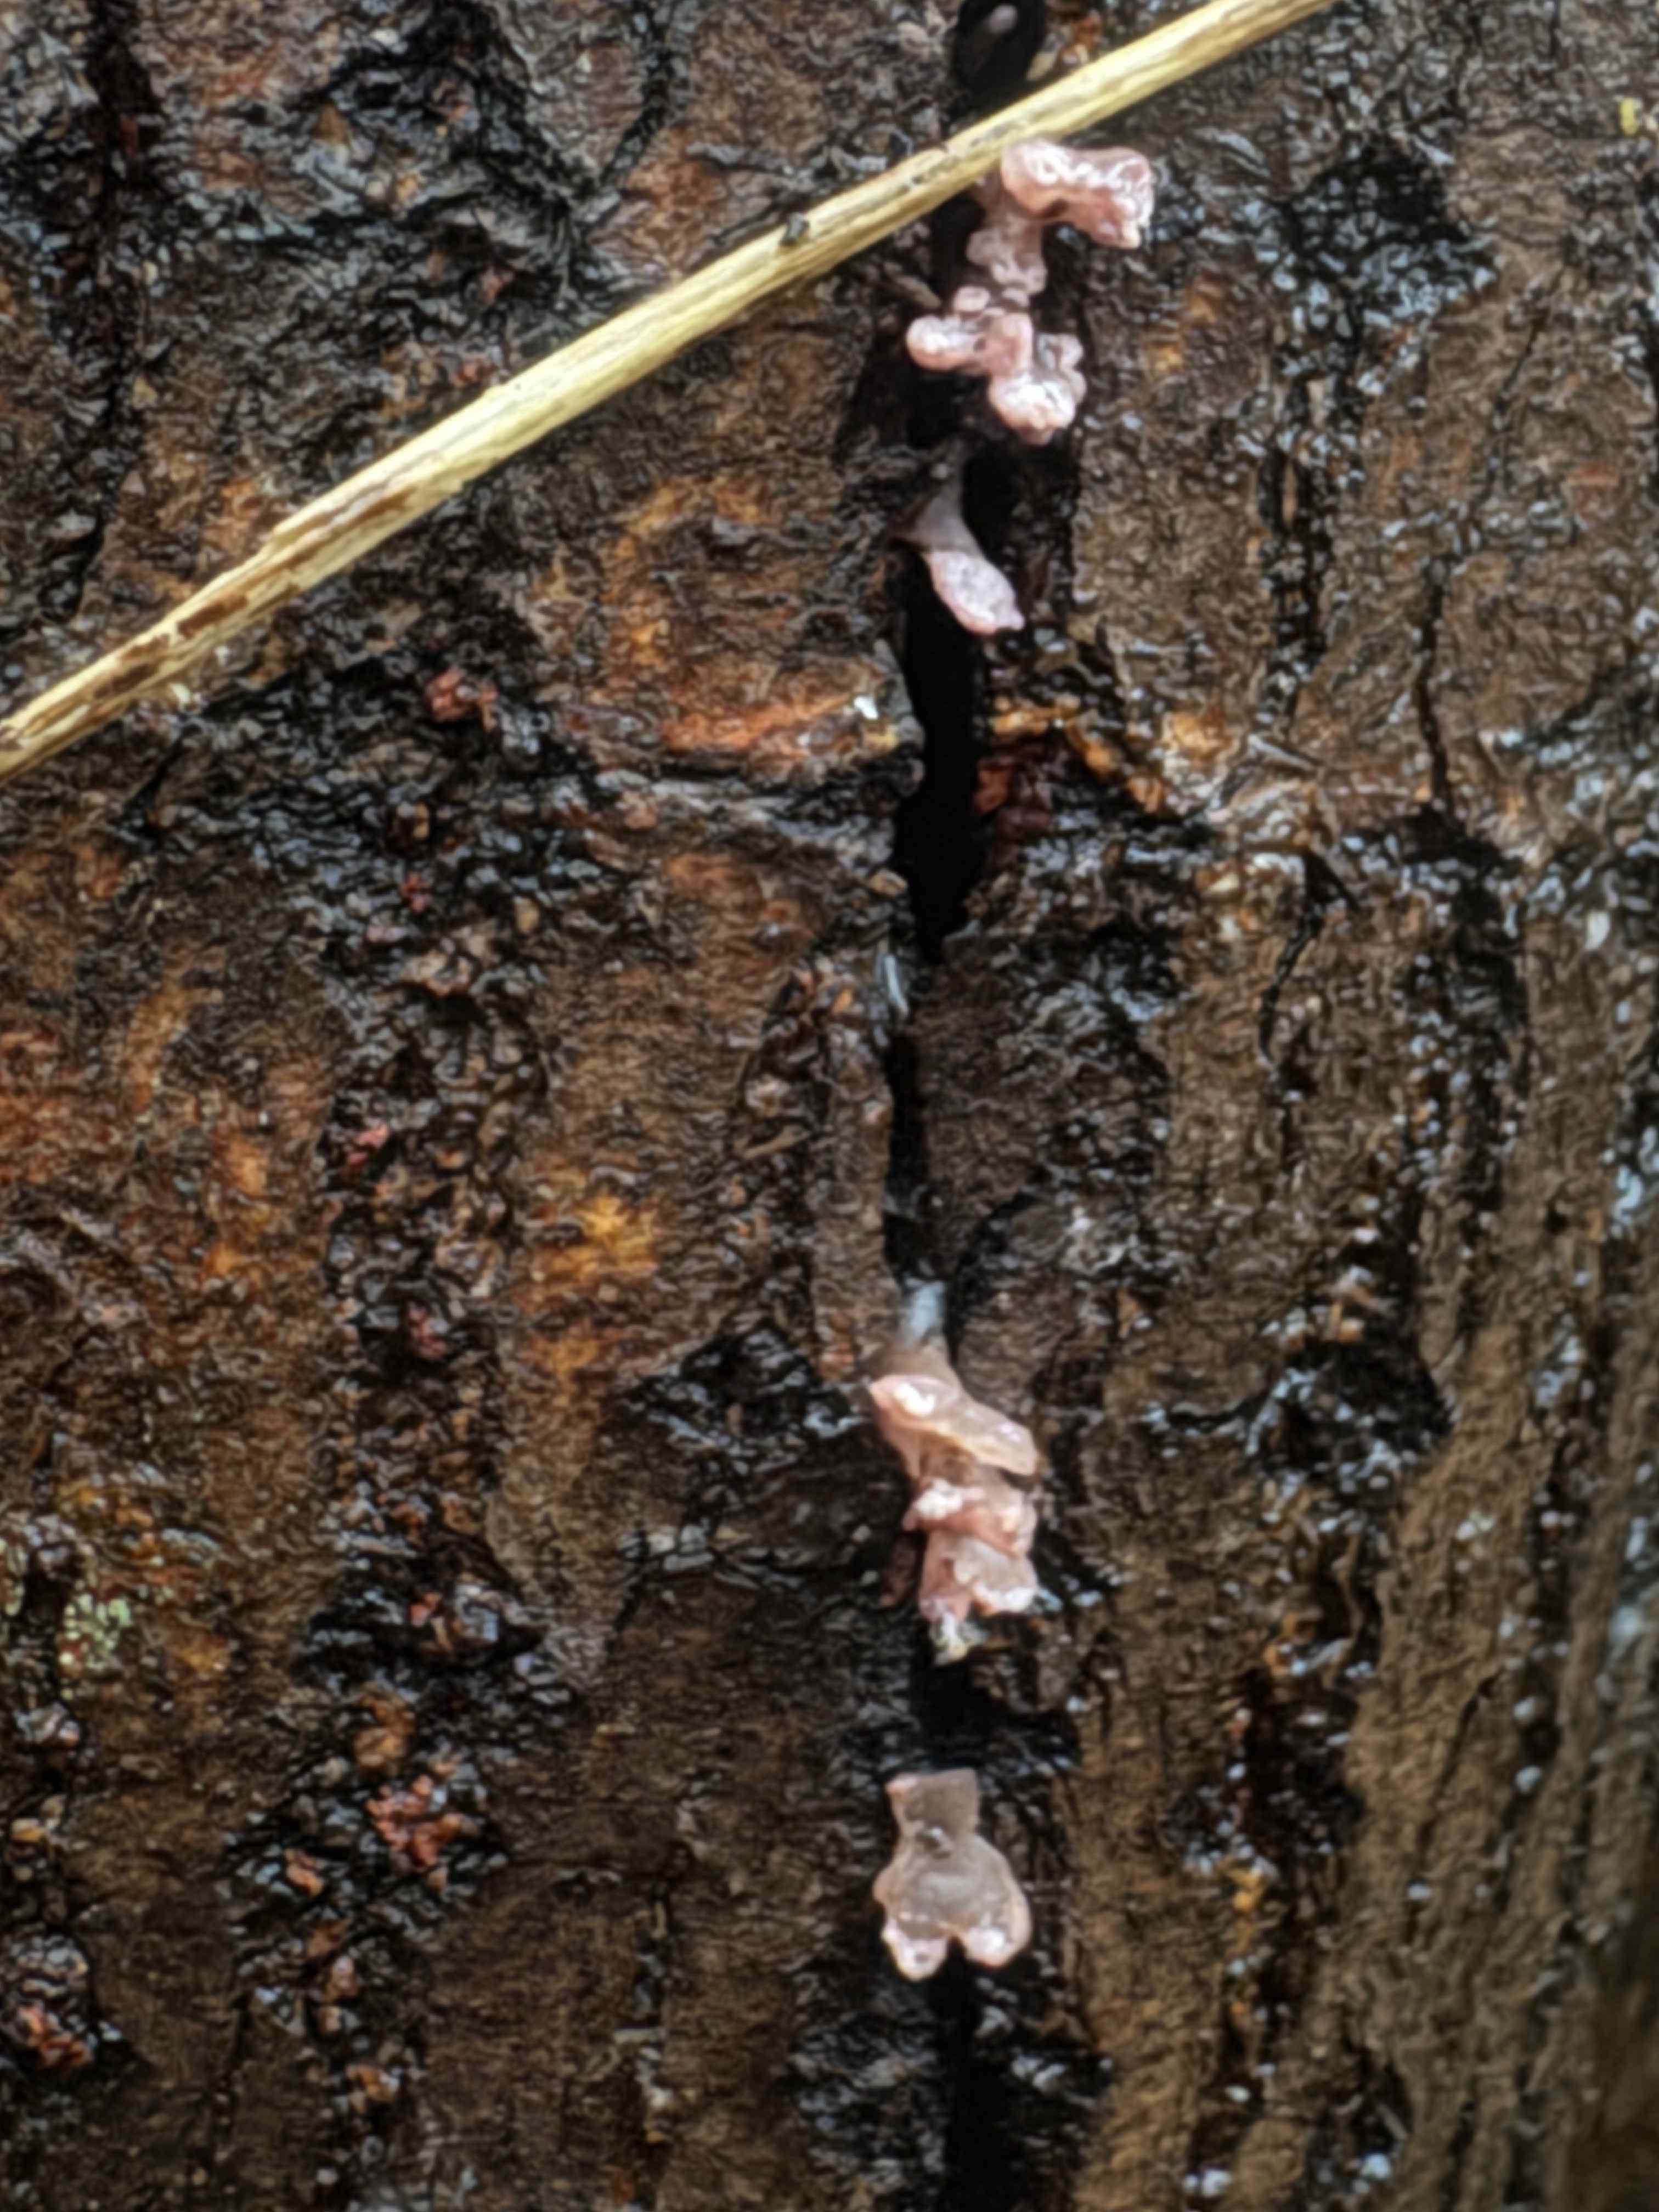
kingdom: Fungi
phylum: Ascomycota
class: Leotiomycetes
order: Helotiales
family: Gelatinodiscaceae
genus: Ascocoryne
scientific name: Ascocoryne sarcoides
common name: rødlilla sejskive
